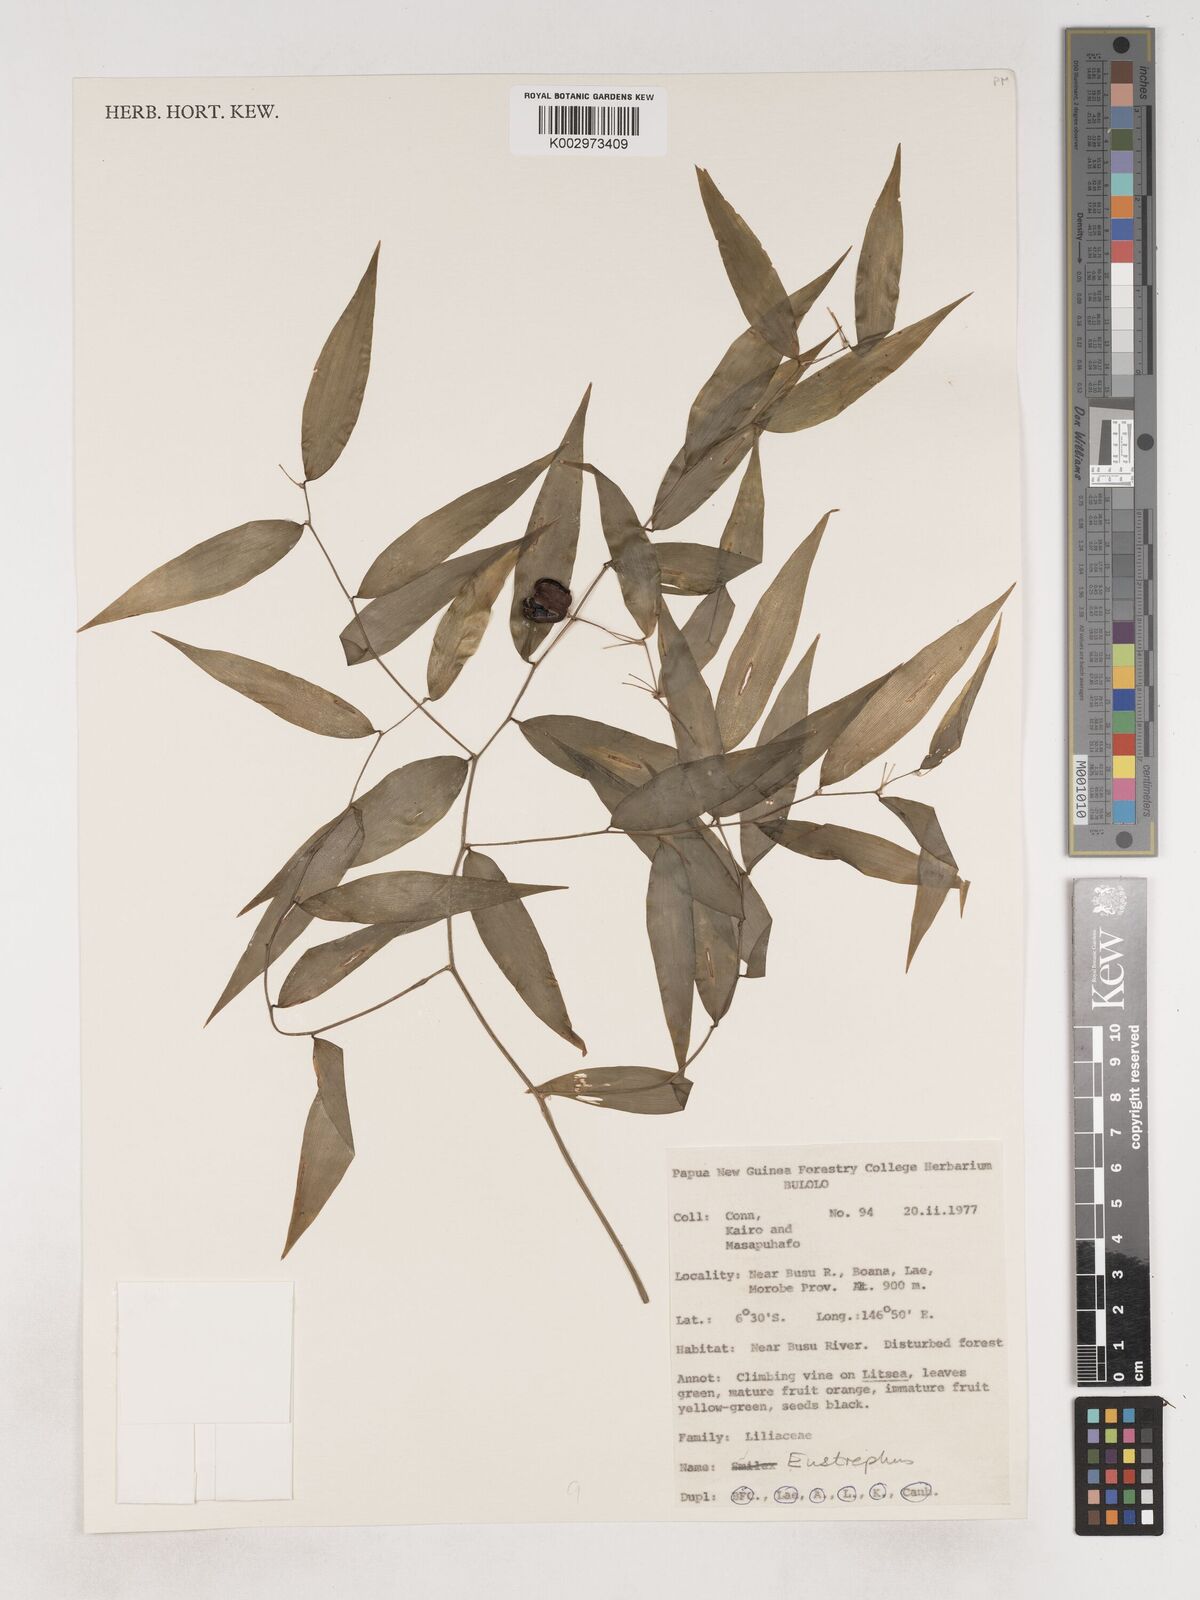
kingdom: Plantae
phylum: Tracheophyta
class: Liliopsida
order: Asparagales
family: Asparagaceae
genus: Eustrephus
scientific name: Eustrephus latifolius
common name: Orangevine
